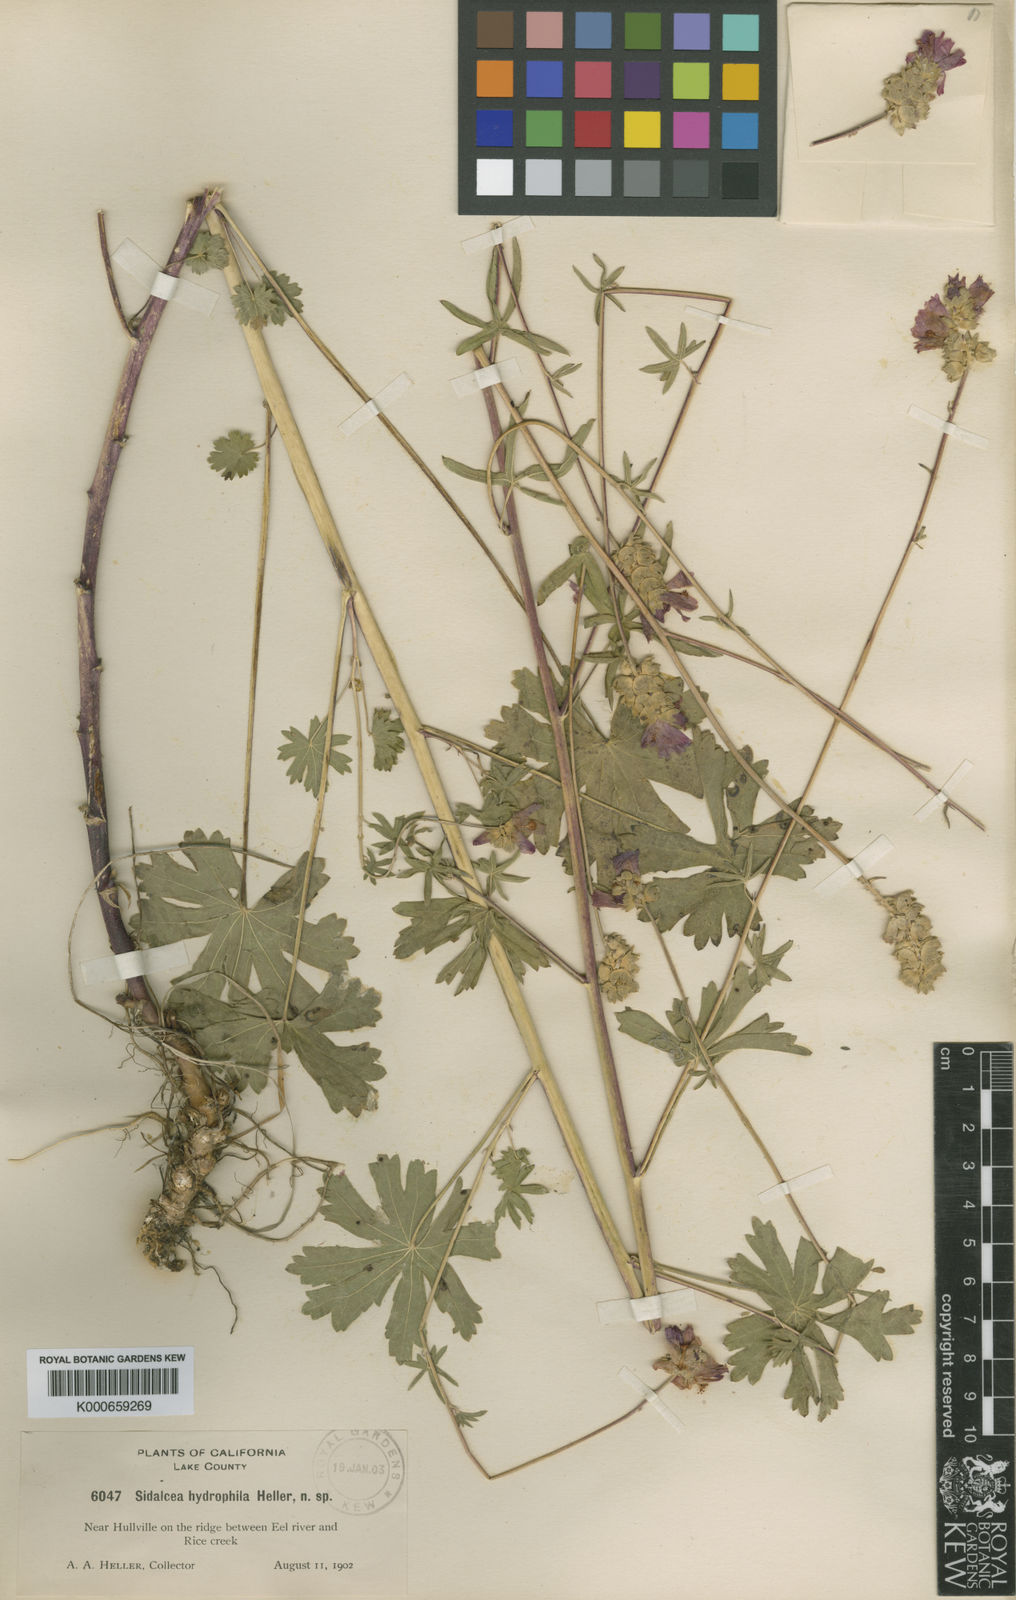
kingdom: Plantae
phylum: Tracheophyta
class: Magnoliopsida
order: Malvales
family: Malvaceae
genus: Sidalcea
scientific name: Sidalcea oregana
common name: Oregon checker-mallow
